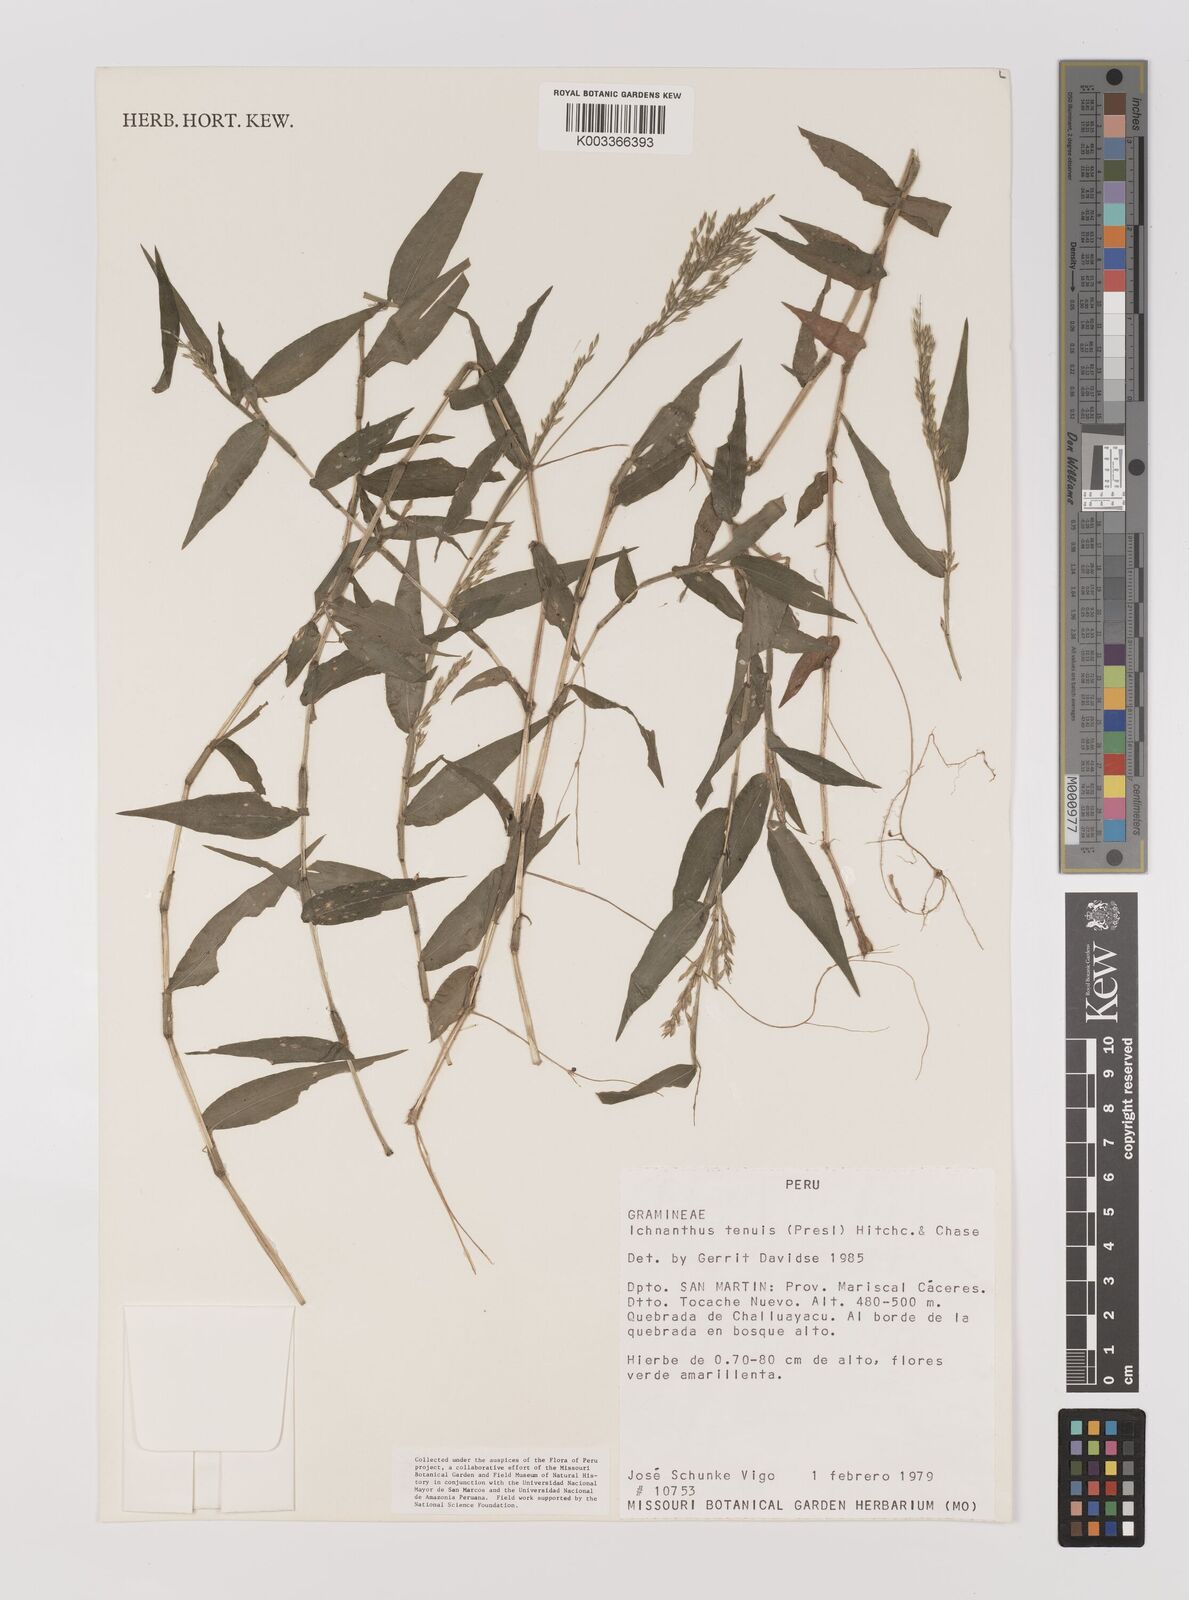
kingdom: Plantae
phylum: Tracheophyta
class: Liliopsida
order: Poales
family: Poaceae
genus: Ichnanthus
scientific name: Ichnanthus tenuis
